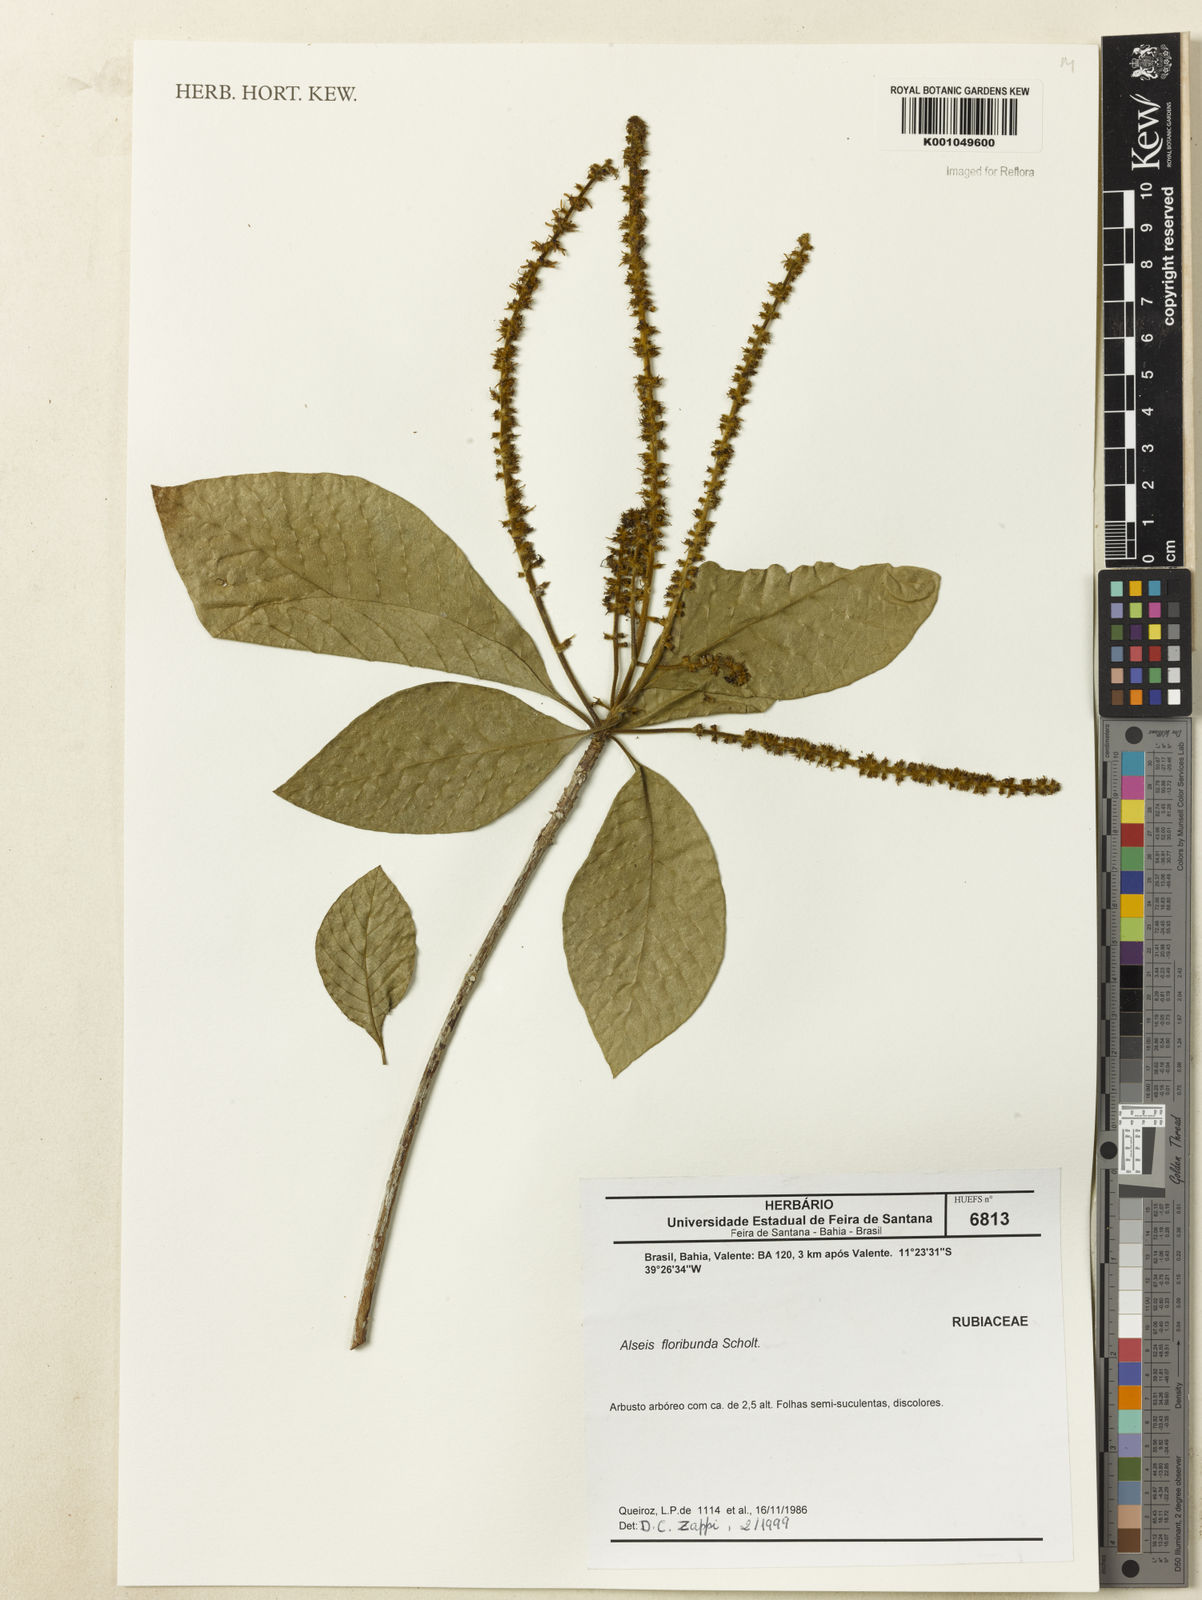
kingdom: Plantae
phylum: Tracheophyta
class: Magnoliopsida
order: Gentianales
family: Rubiaceae
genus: Alseis
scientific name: Alseis floribunda
